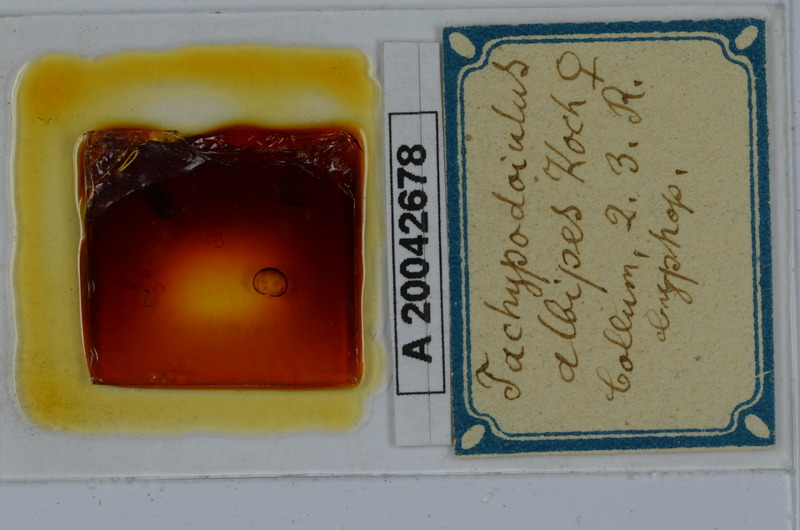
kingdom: Animalia
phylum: Arthropoda
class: Diplopoda
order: Julida
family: Julidae
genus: Tachypodoiulus
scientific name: Tachypodoiulus niger
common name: White-legged snake millipede
